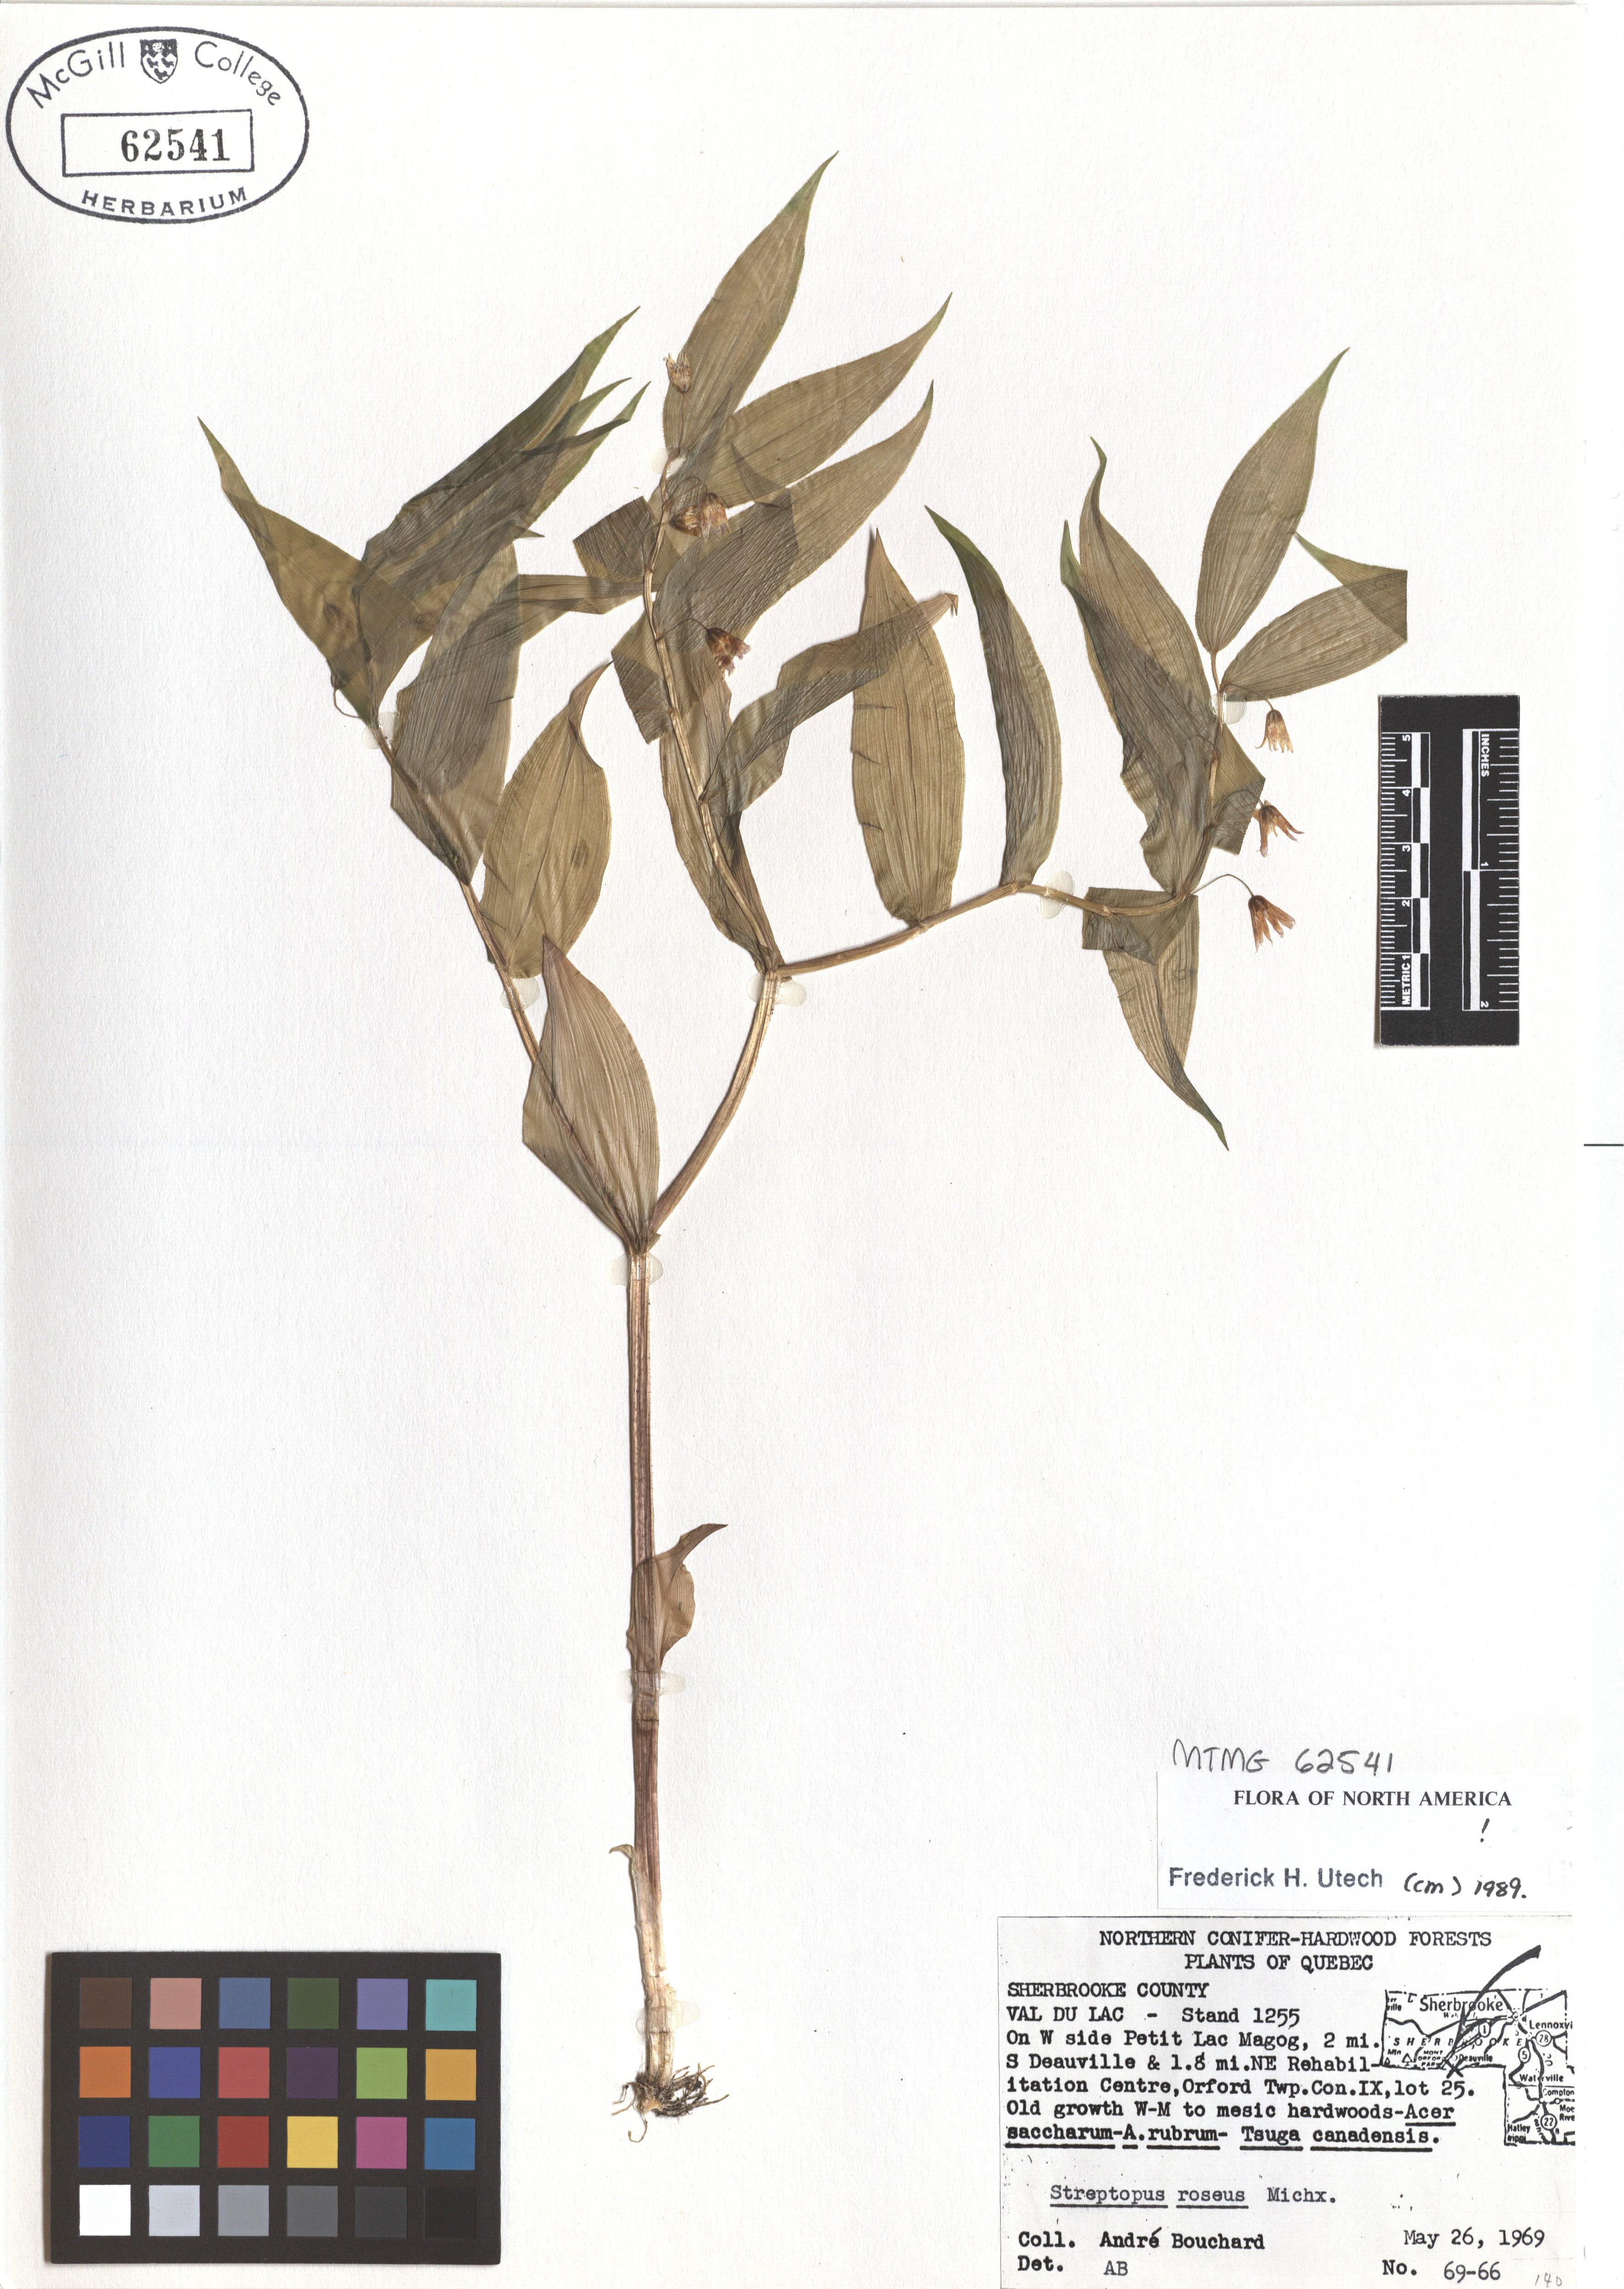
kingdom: Plantae
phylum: Tracheophyta
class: Liliopsida
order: Liliales
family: Liliaceae
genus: Streptopus
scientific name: Streptopus lanceolatus
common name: Rose mandarin
